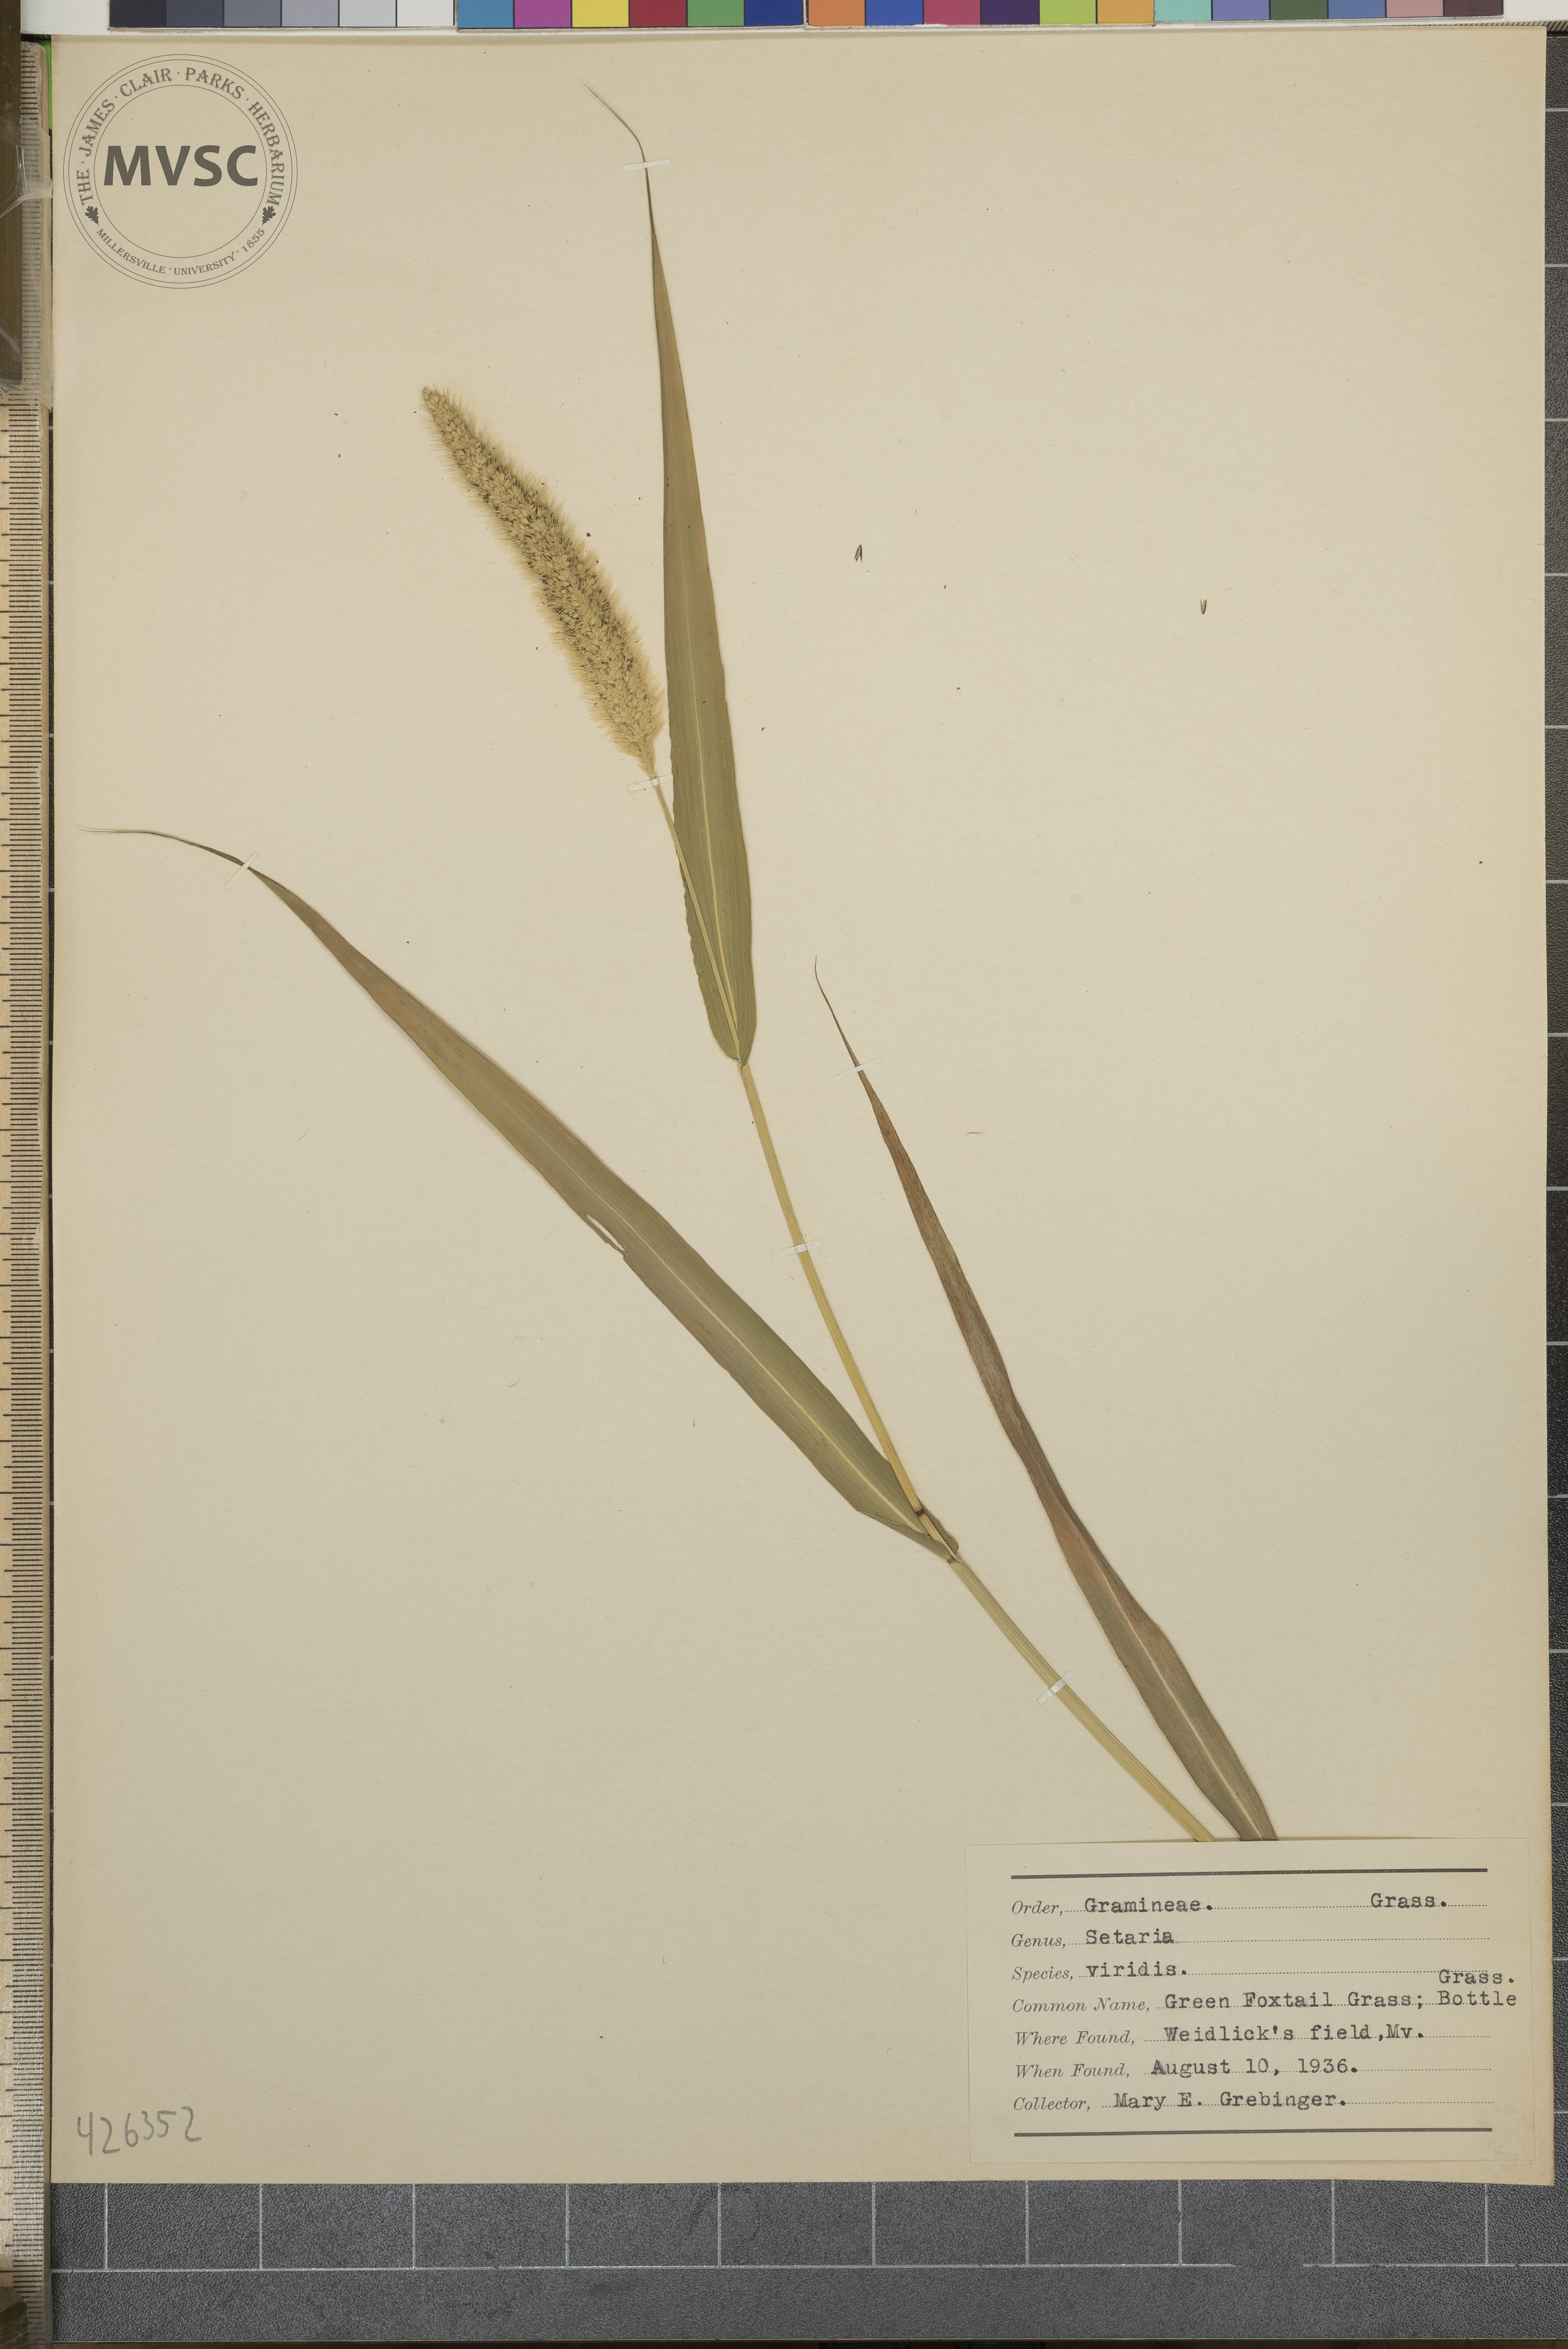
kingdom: Plantae
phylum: Tracheophyta
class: Liliopsida
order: Poales
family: Poaceae
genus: Setaria
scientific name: Setaria viridis
